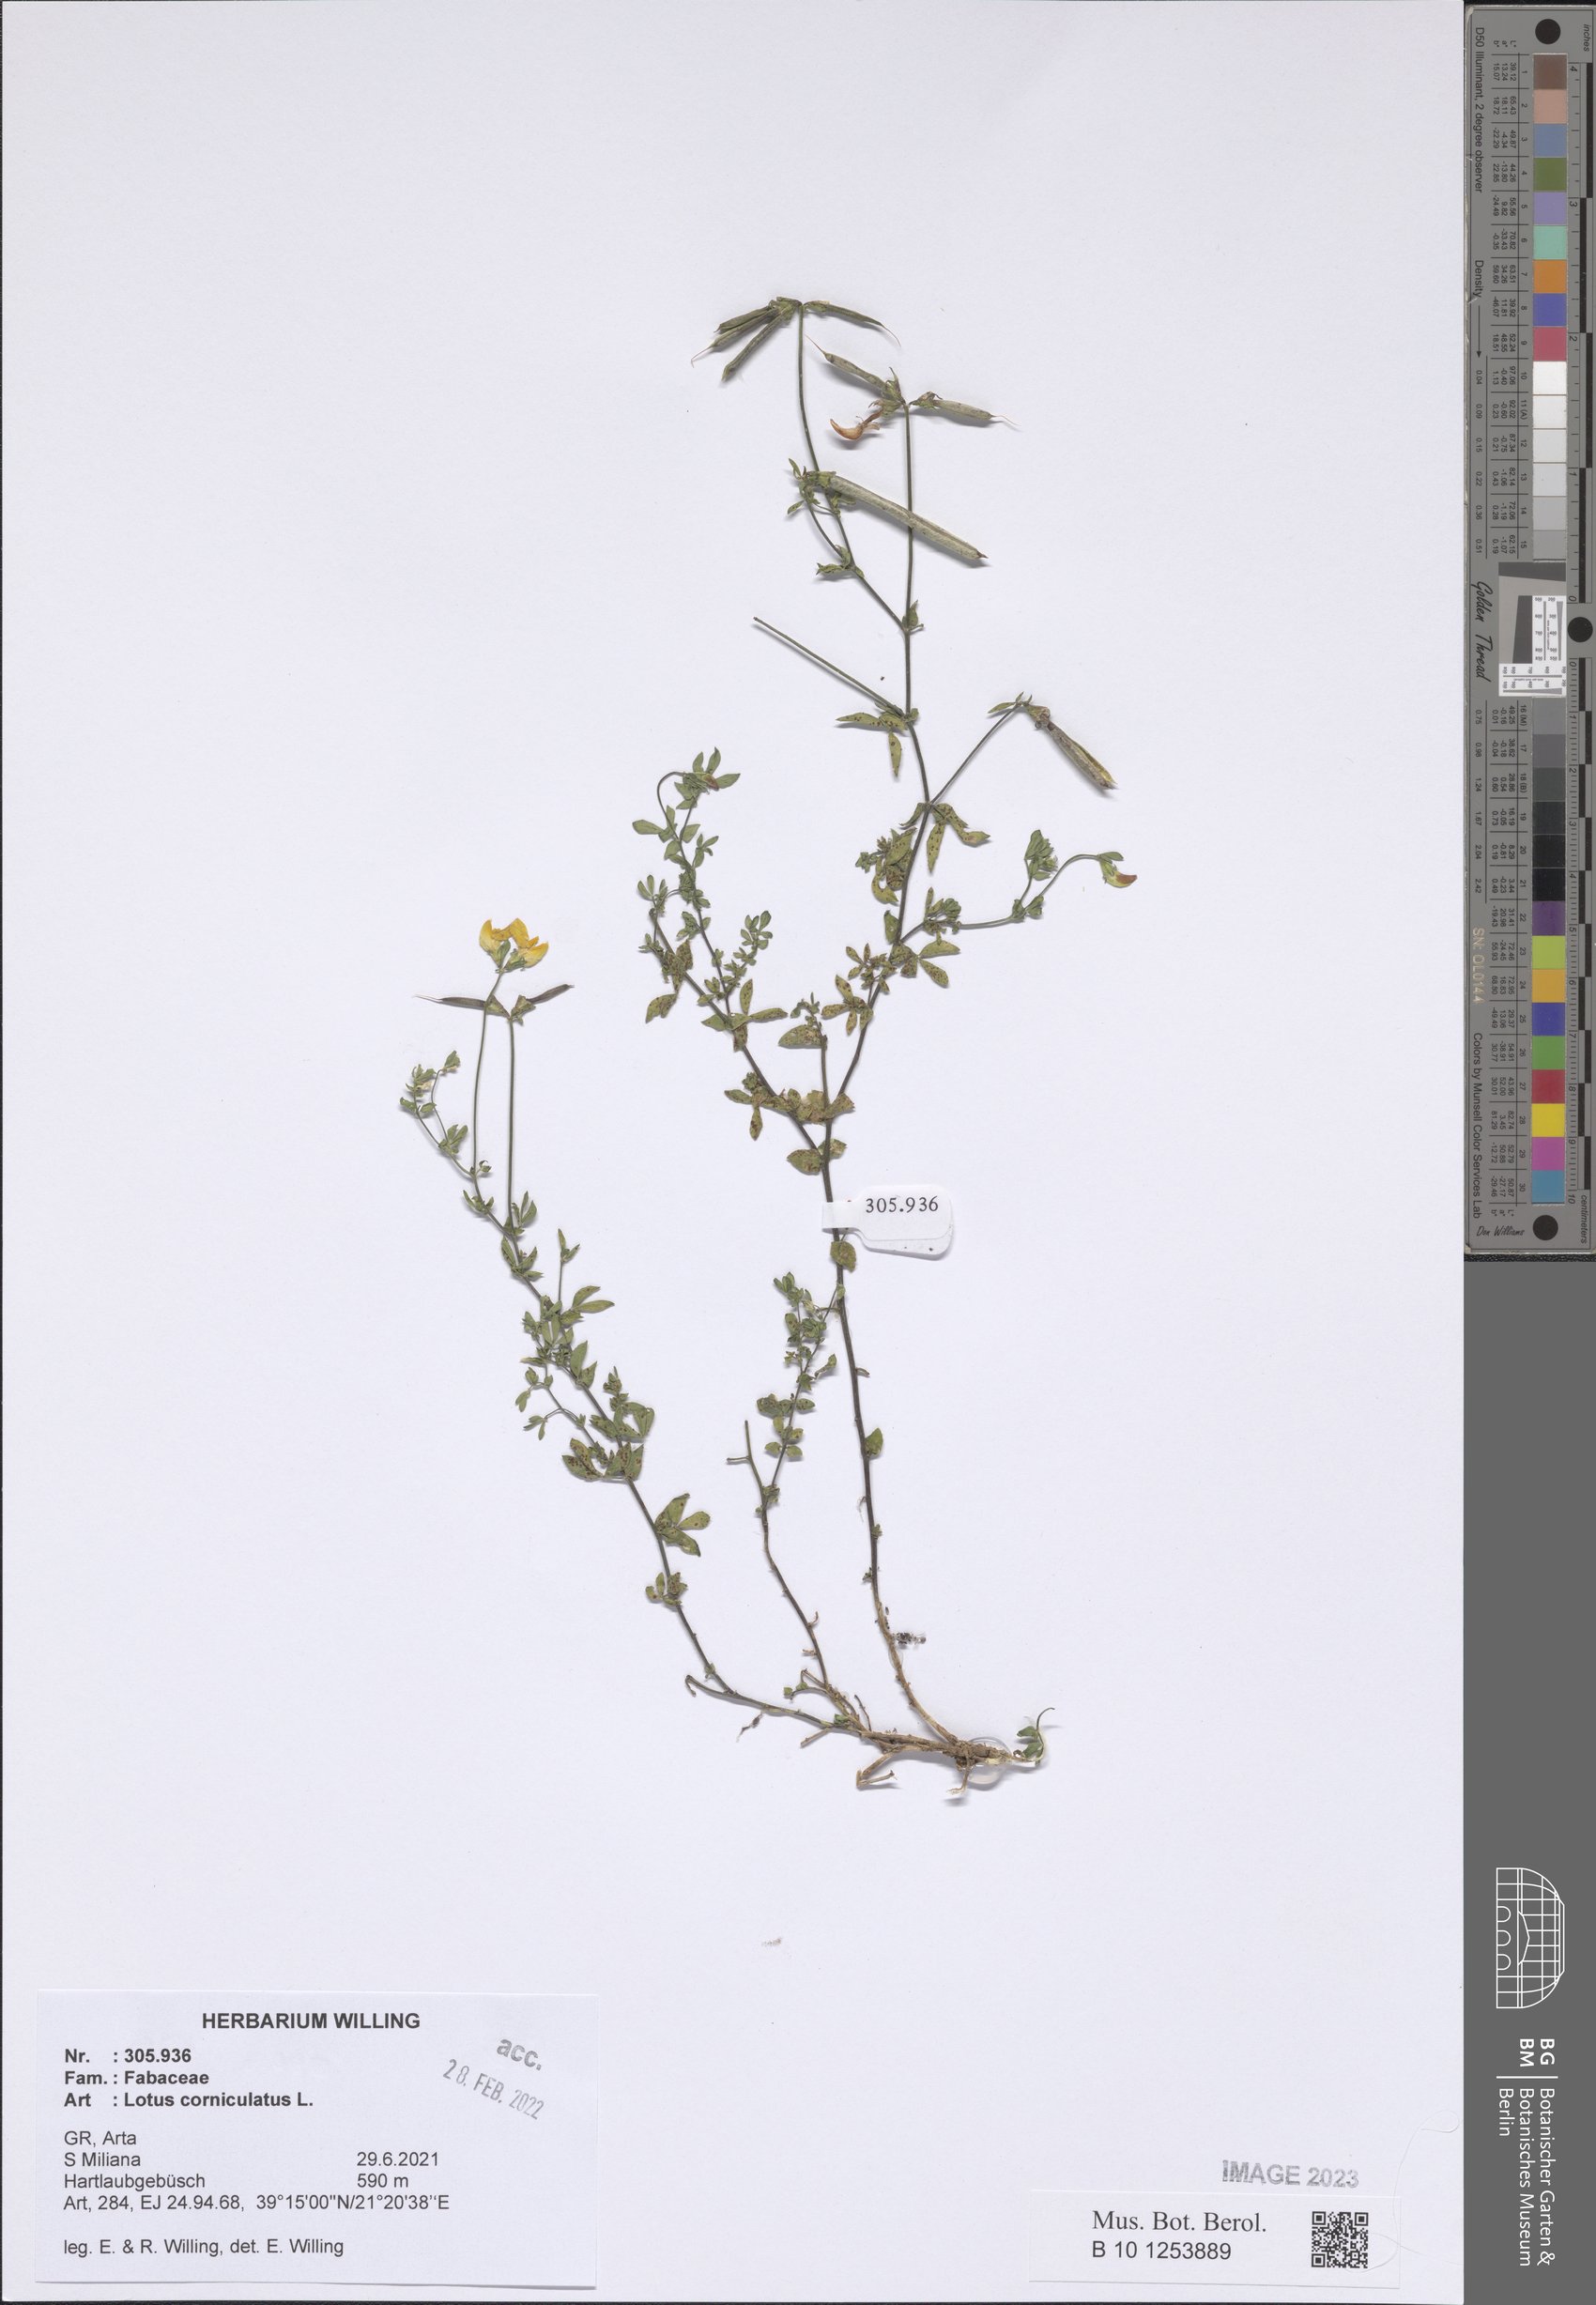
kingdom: Plantae
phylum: Tracheophyta
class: Magnoliopsida
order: Fabales
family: Fabaceae
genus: Lotus
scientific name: Lotus corniculatus
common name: Common bird's-foot-trefoil
